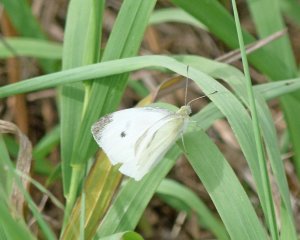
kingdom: Animalia
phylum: Arthropoda
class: Insecta
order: Lepidoptera
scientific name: Lepidoptera
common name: Butterflies
